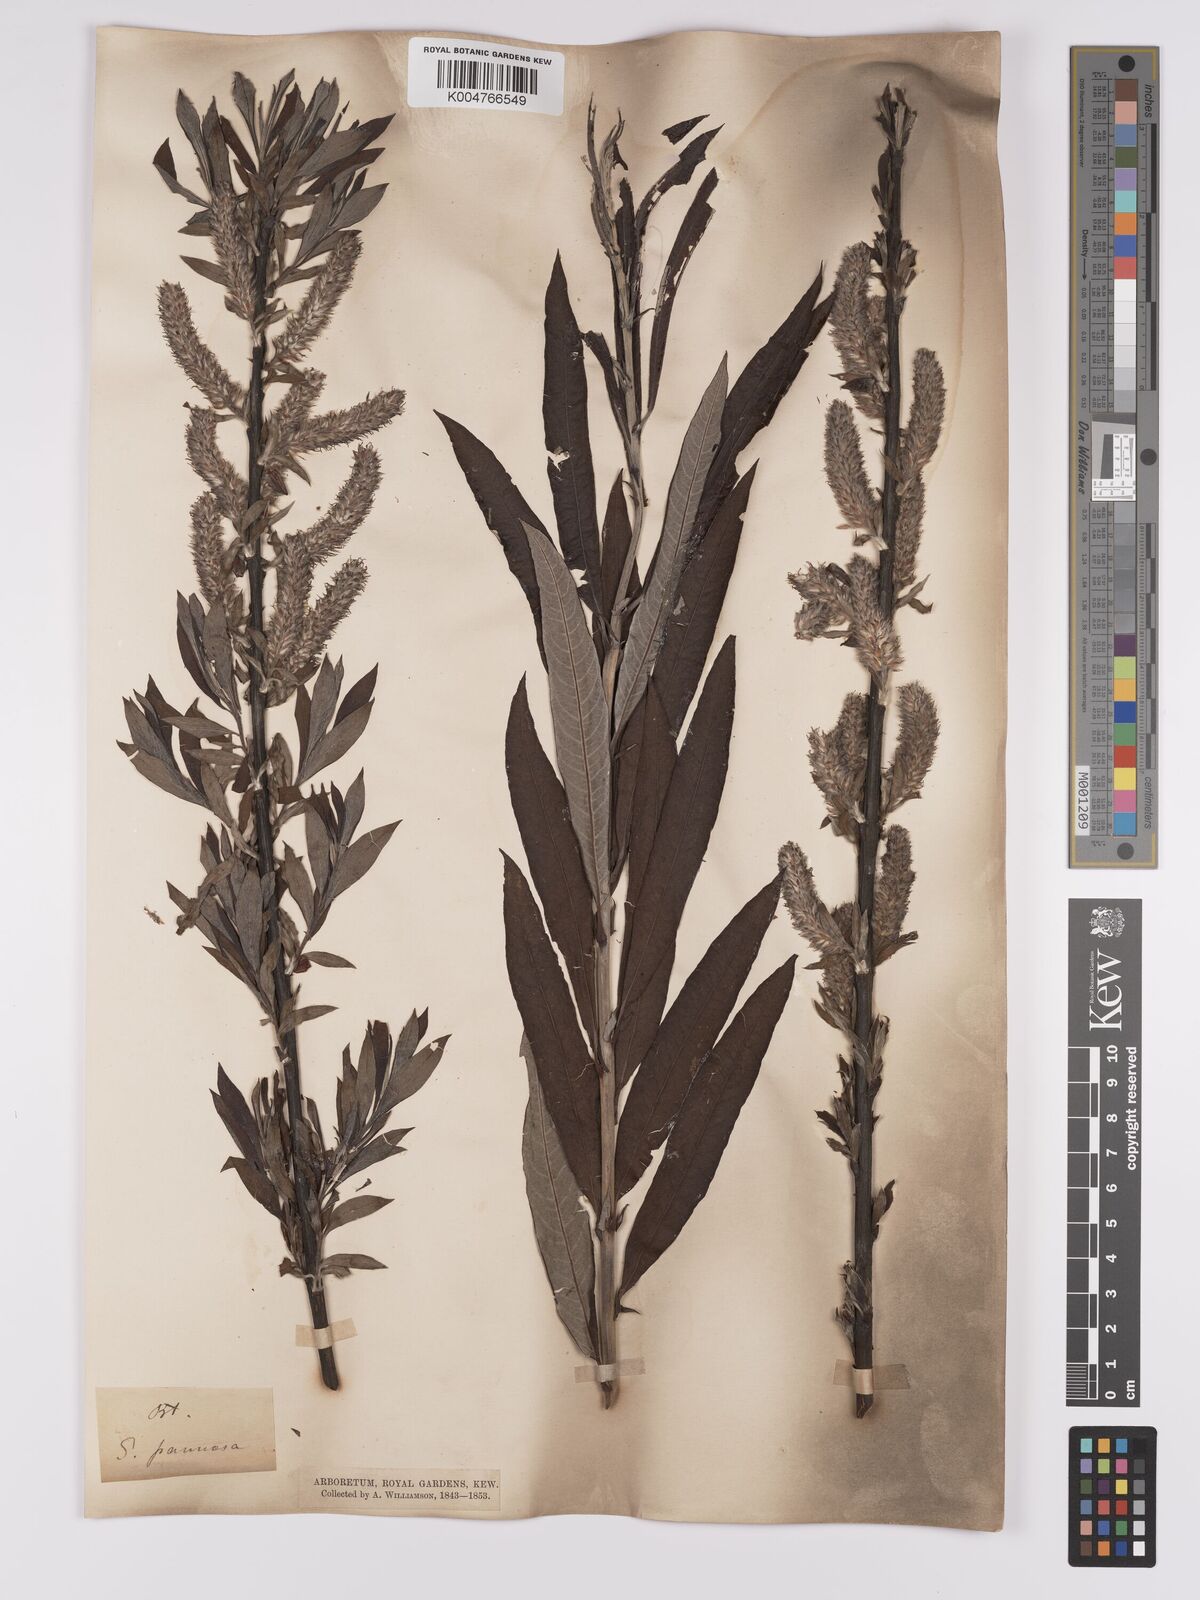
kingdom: Plantae
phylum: Tracheophyta
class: Magnoliopsida
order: Malpighiales
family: Salicaceae
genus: Salix
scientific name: Salix caprea
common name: Goat willow
